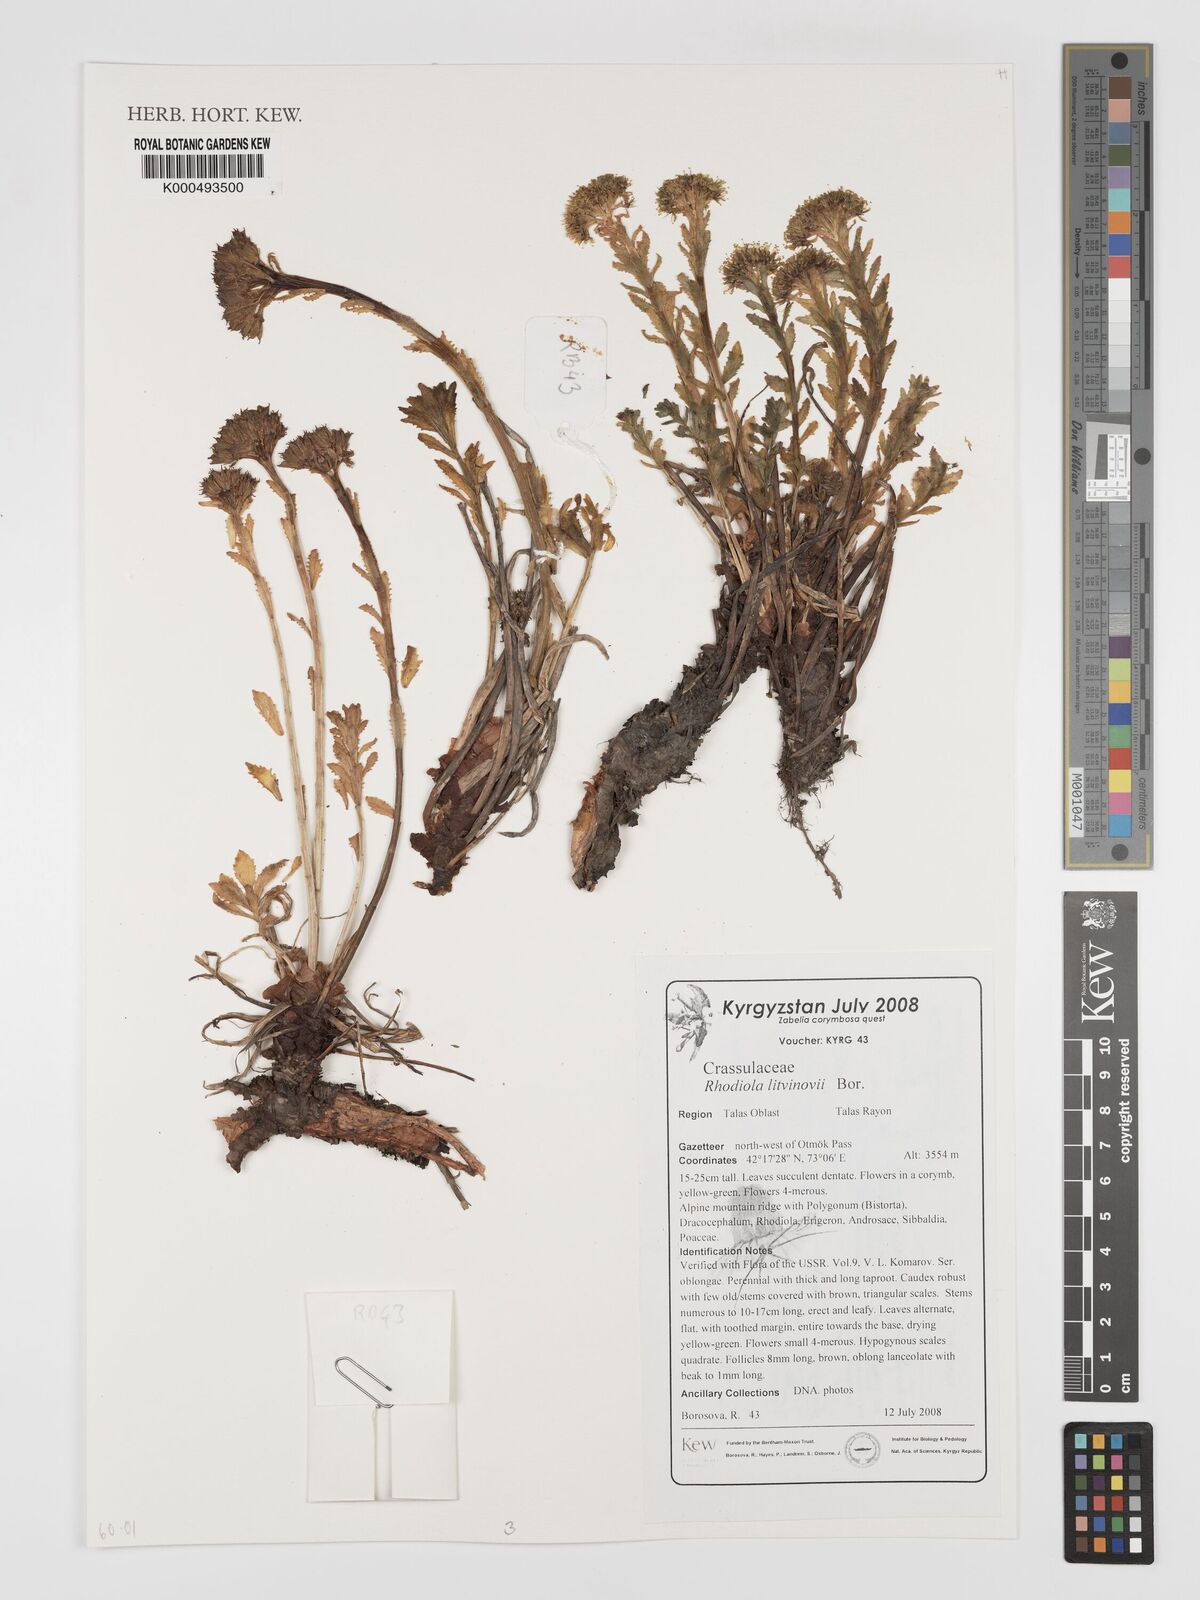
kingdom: Plantae
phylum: Tracheophyta
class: Magnoliopsida
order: Saxifragales
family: Crassulaceae
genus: Rhodiola
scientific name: Rhodiola
